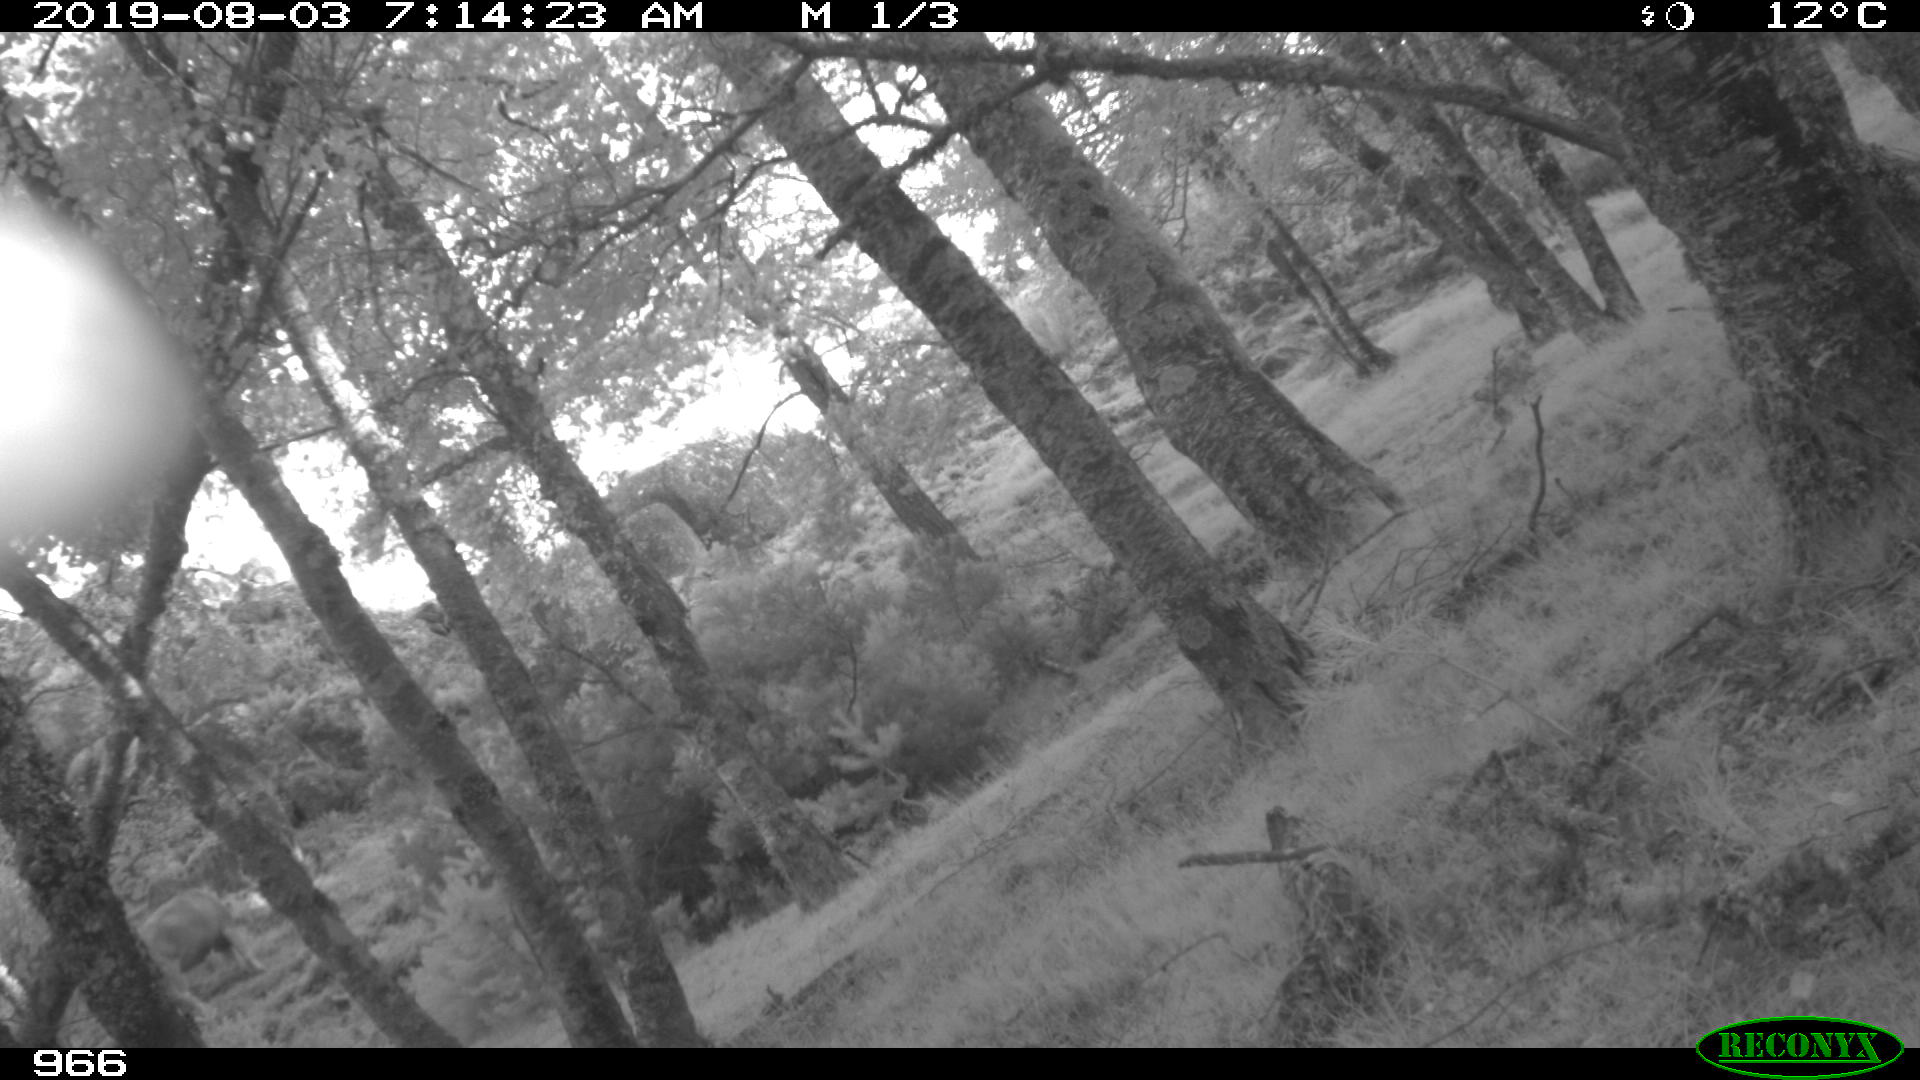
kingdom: Animalia
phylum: Chordata
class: Mammalia
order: Artiodactyla
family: Bovidae
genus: Bos
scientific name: Bos taurus
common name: Domesticated cattle
